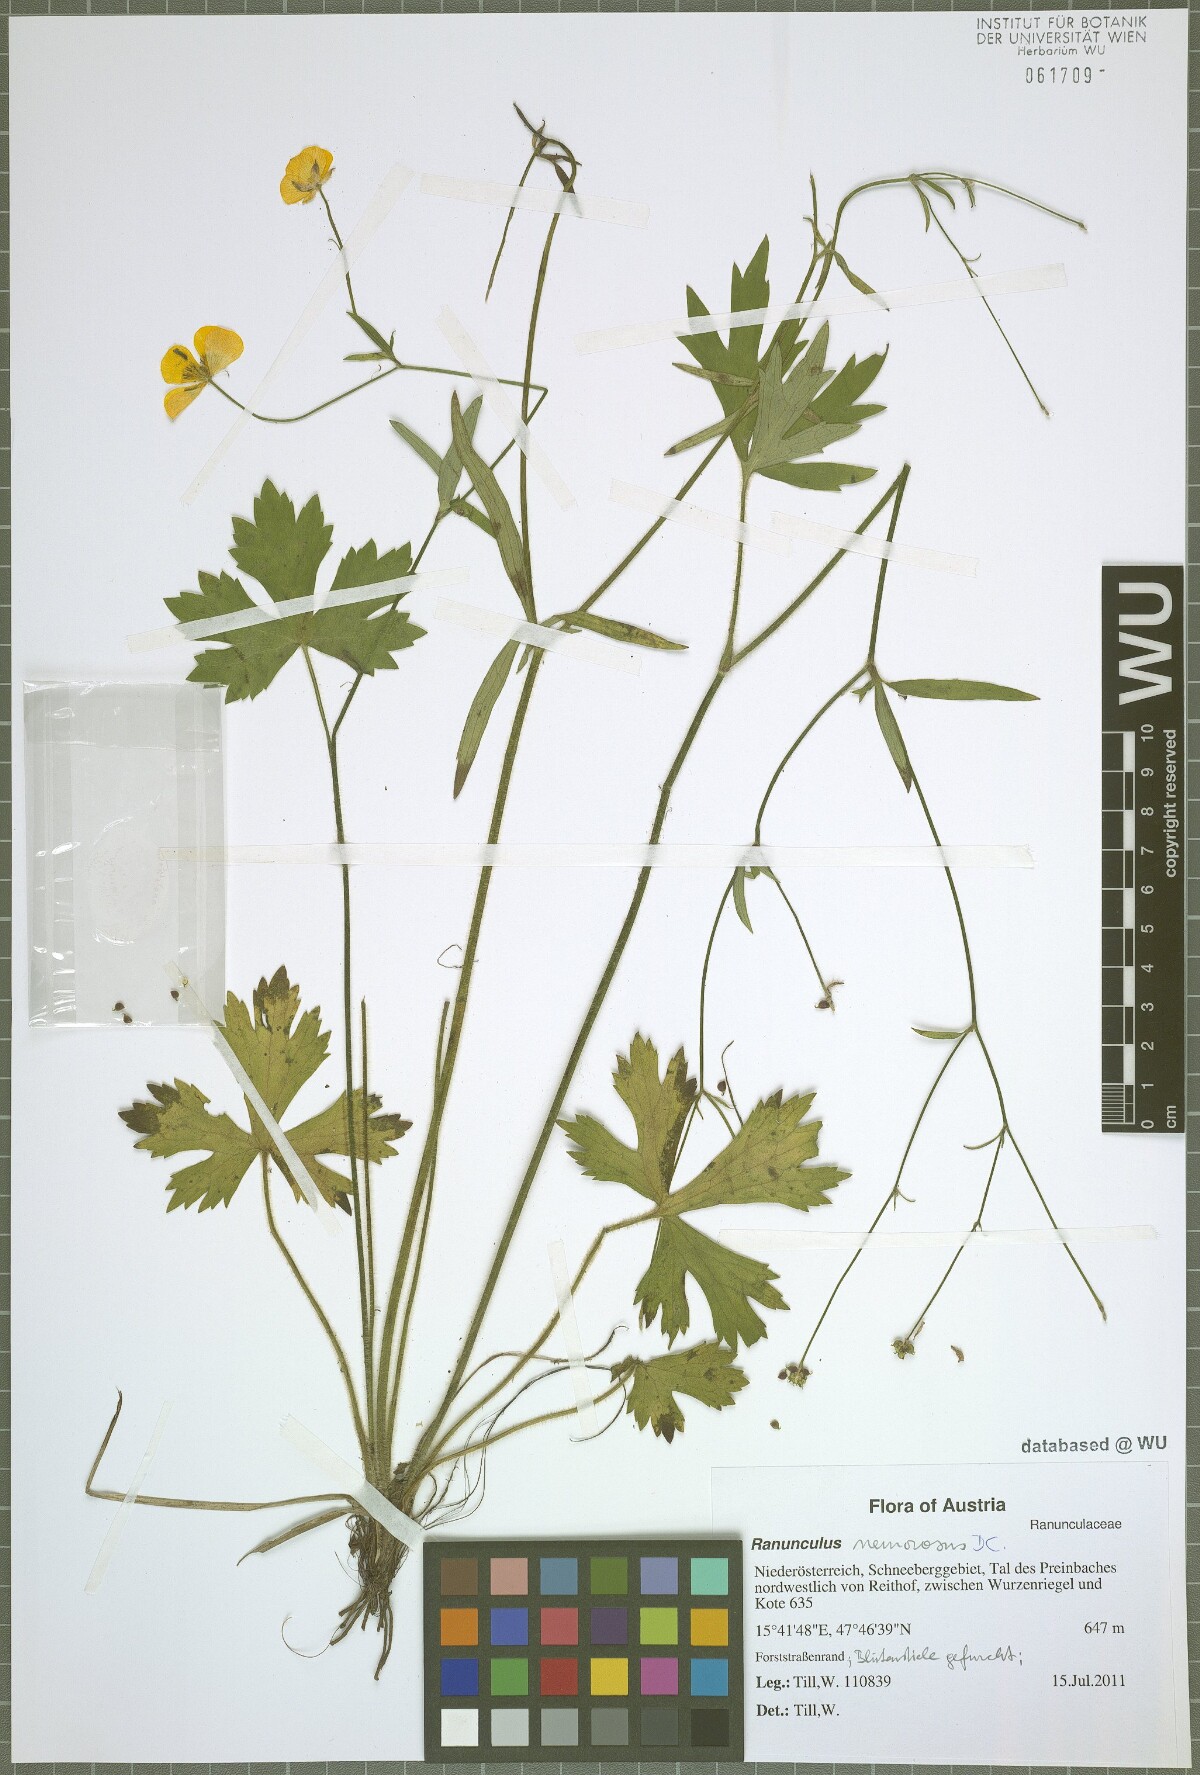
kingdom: Plantae
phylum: Tracheophyta
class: Magnoliopsida
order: Ranunculales
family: Ranunculaceae
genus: Ranunculus
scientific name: Ranunculus polyanthemos
